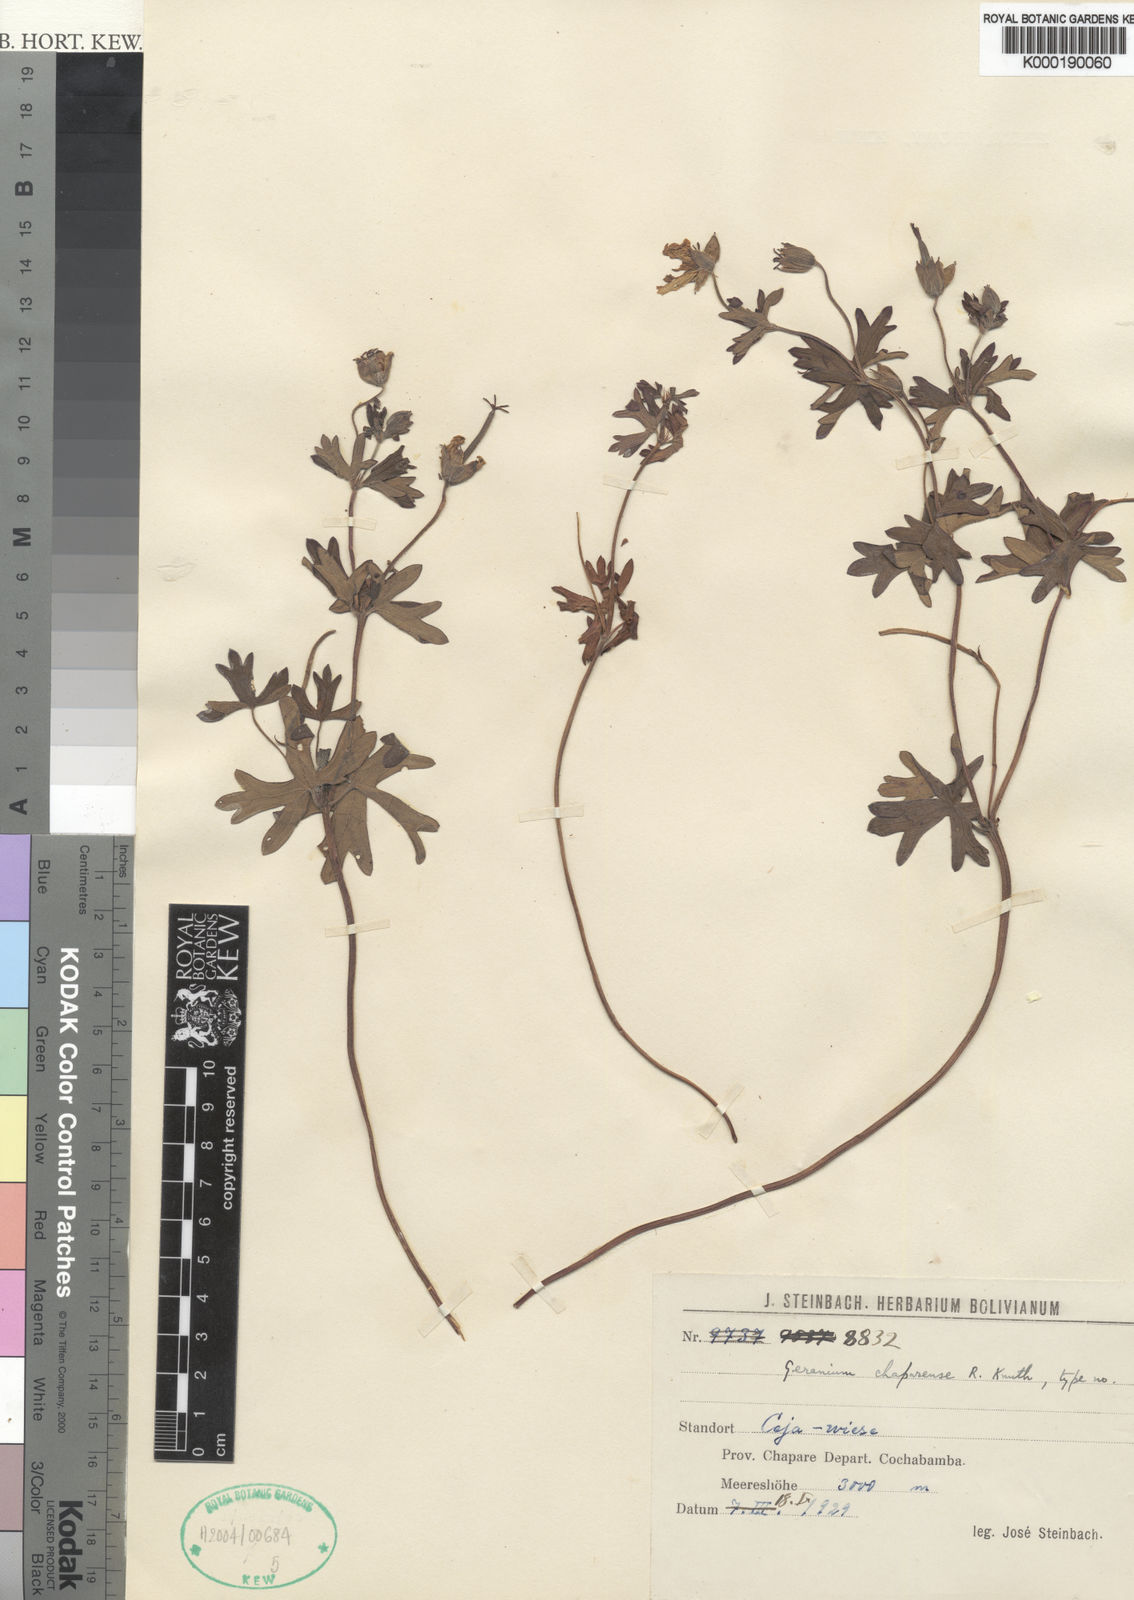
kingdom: Plantae
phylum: Tracheophyta
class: Magnoliopsida
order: Geraniales
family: Geraniaceae
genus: Geranium
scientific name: Geranium rupicola
